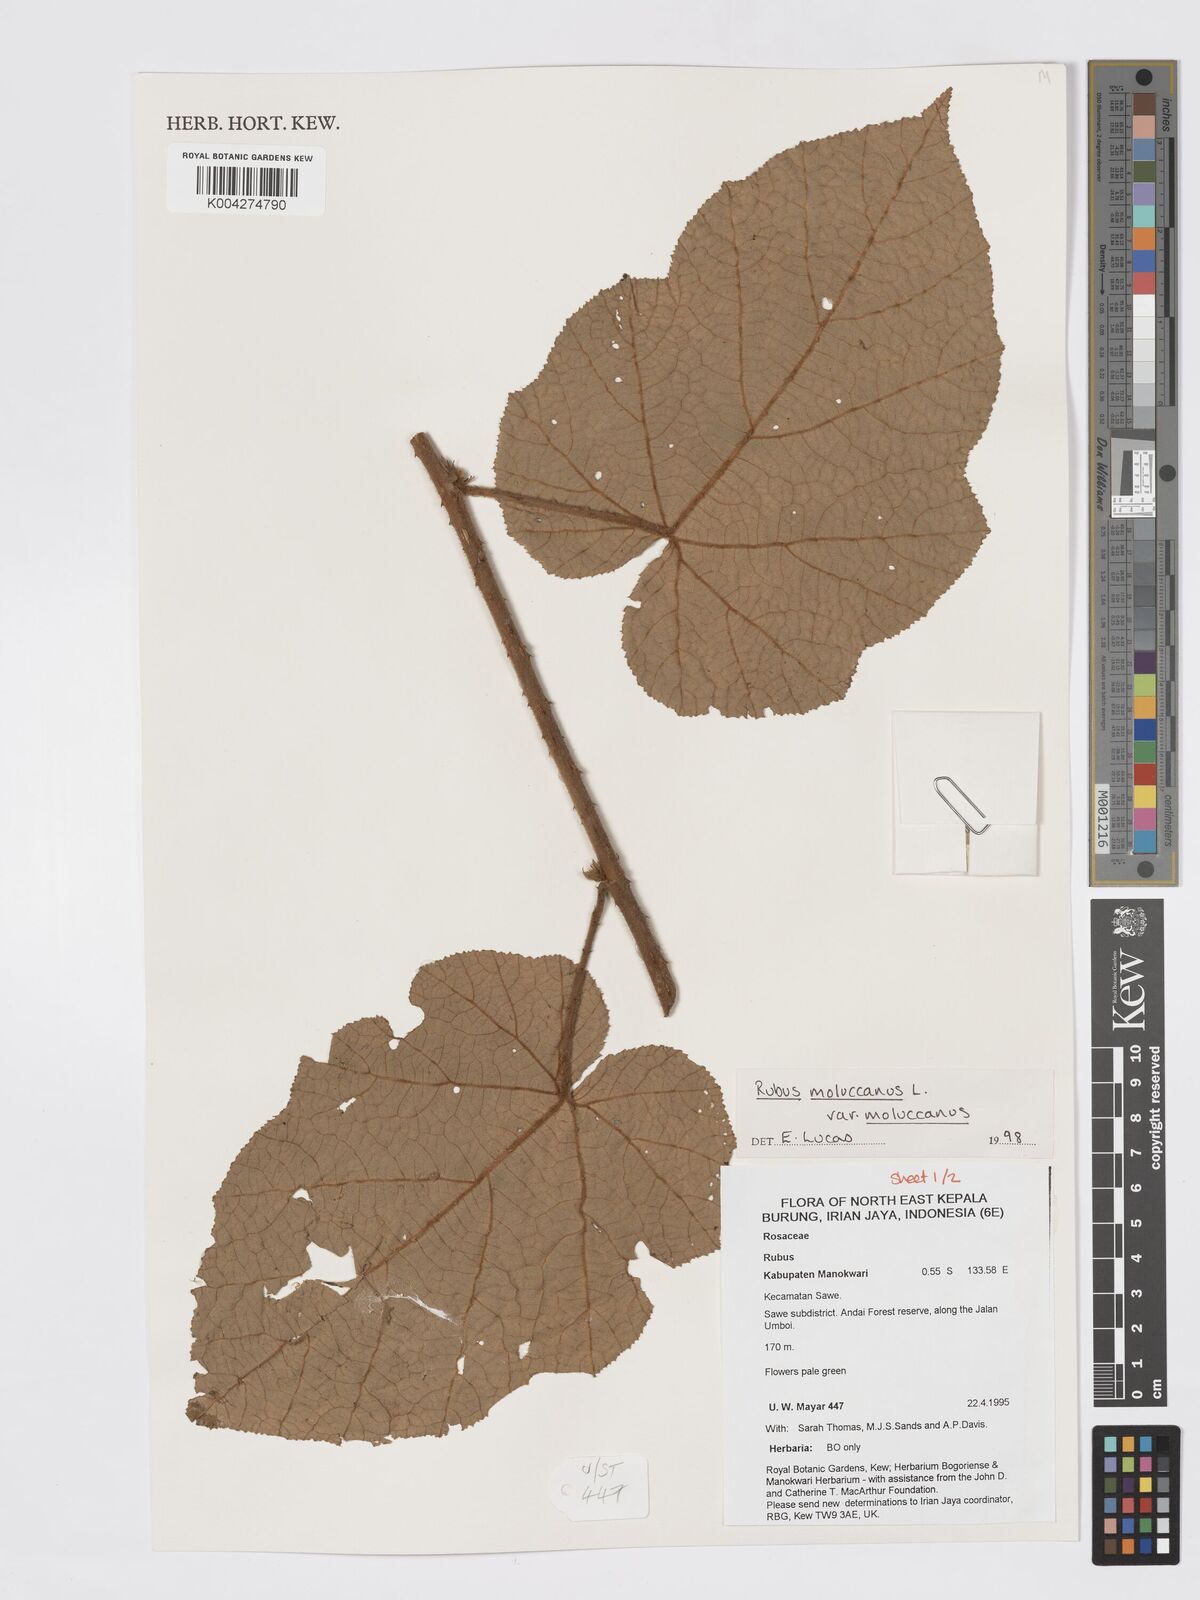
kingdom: Plantae
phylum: Tracheophyta
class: Magnoliopsida
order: Rosales
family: Rosaceae
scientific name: Rosaceae
